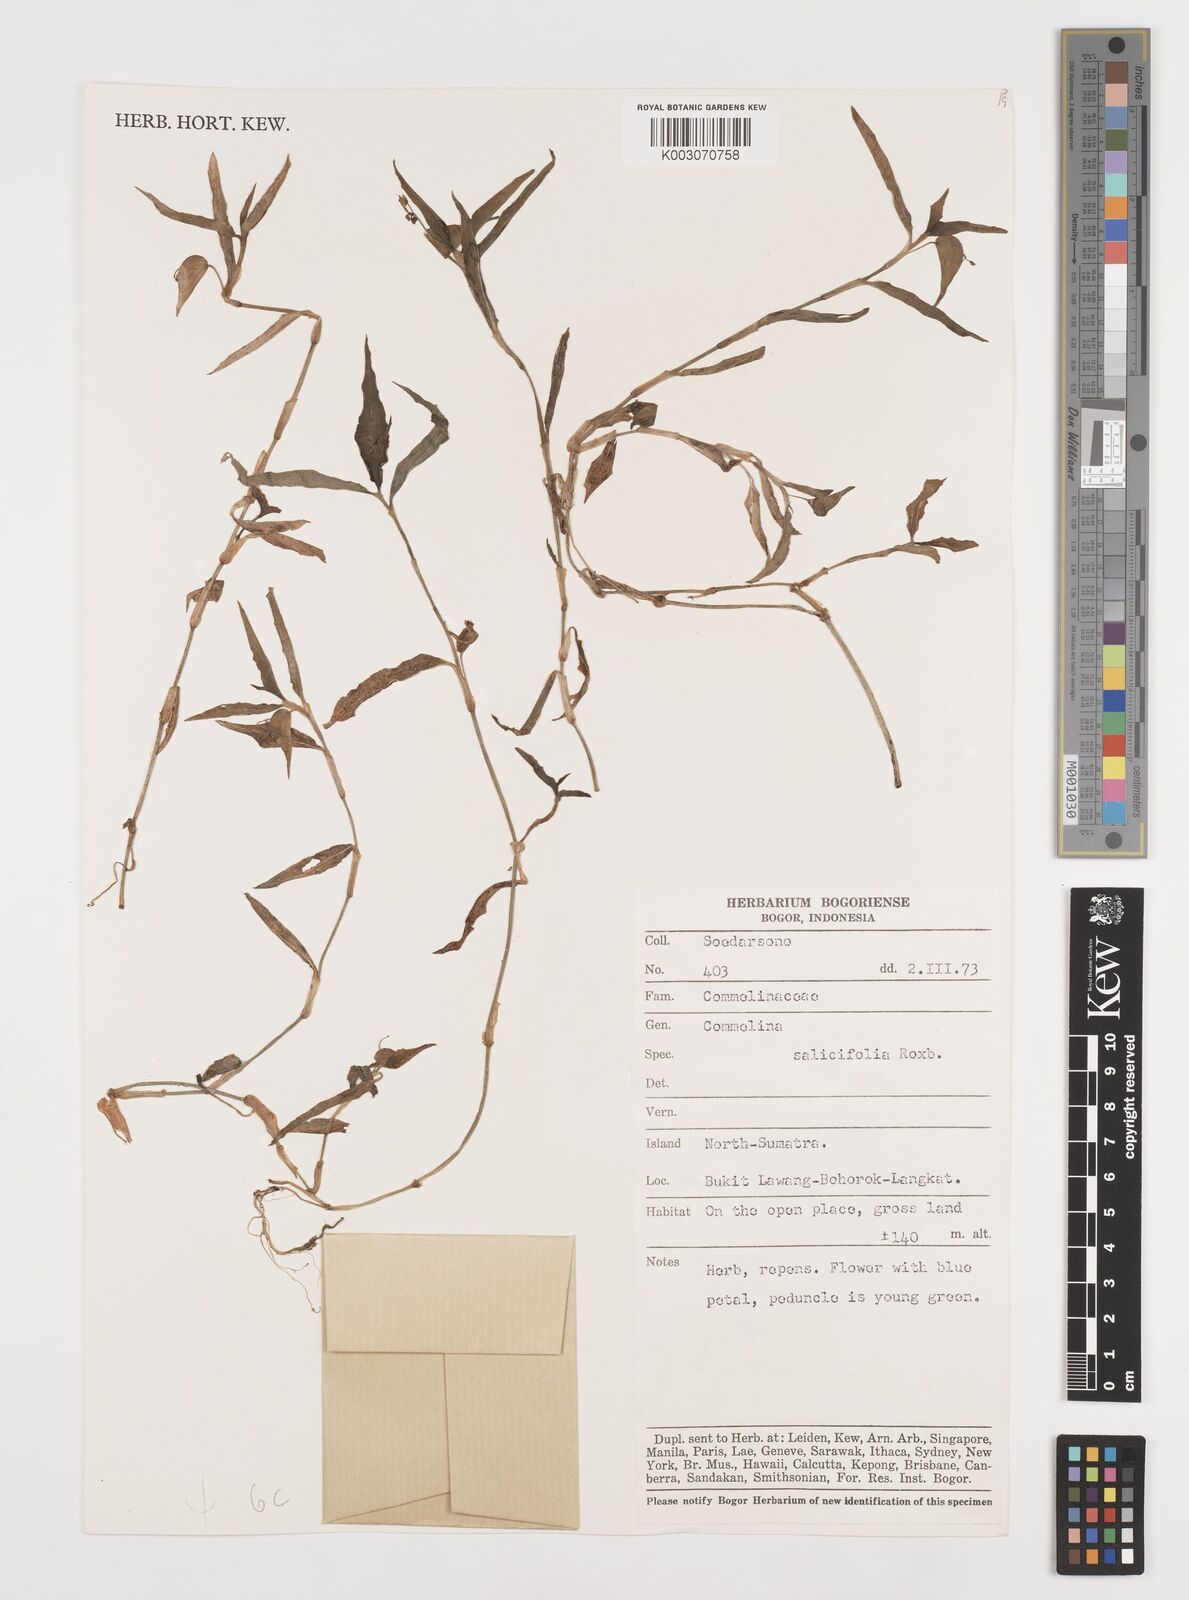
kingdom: Plantae
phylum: Tracheophyta
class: Liliopsida
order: Commelinales
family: Commelinaceae
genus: Commelina
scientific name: Commelina longifolia
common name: Longleaf dayflower
